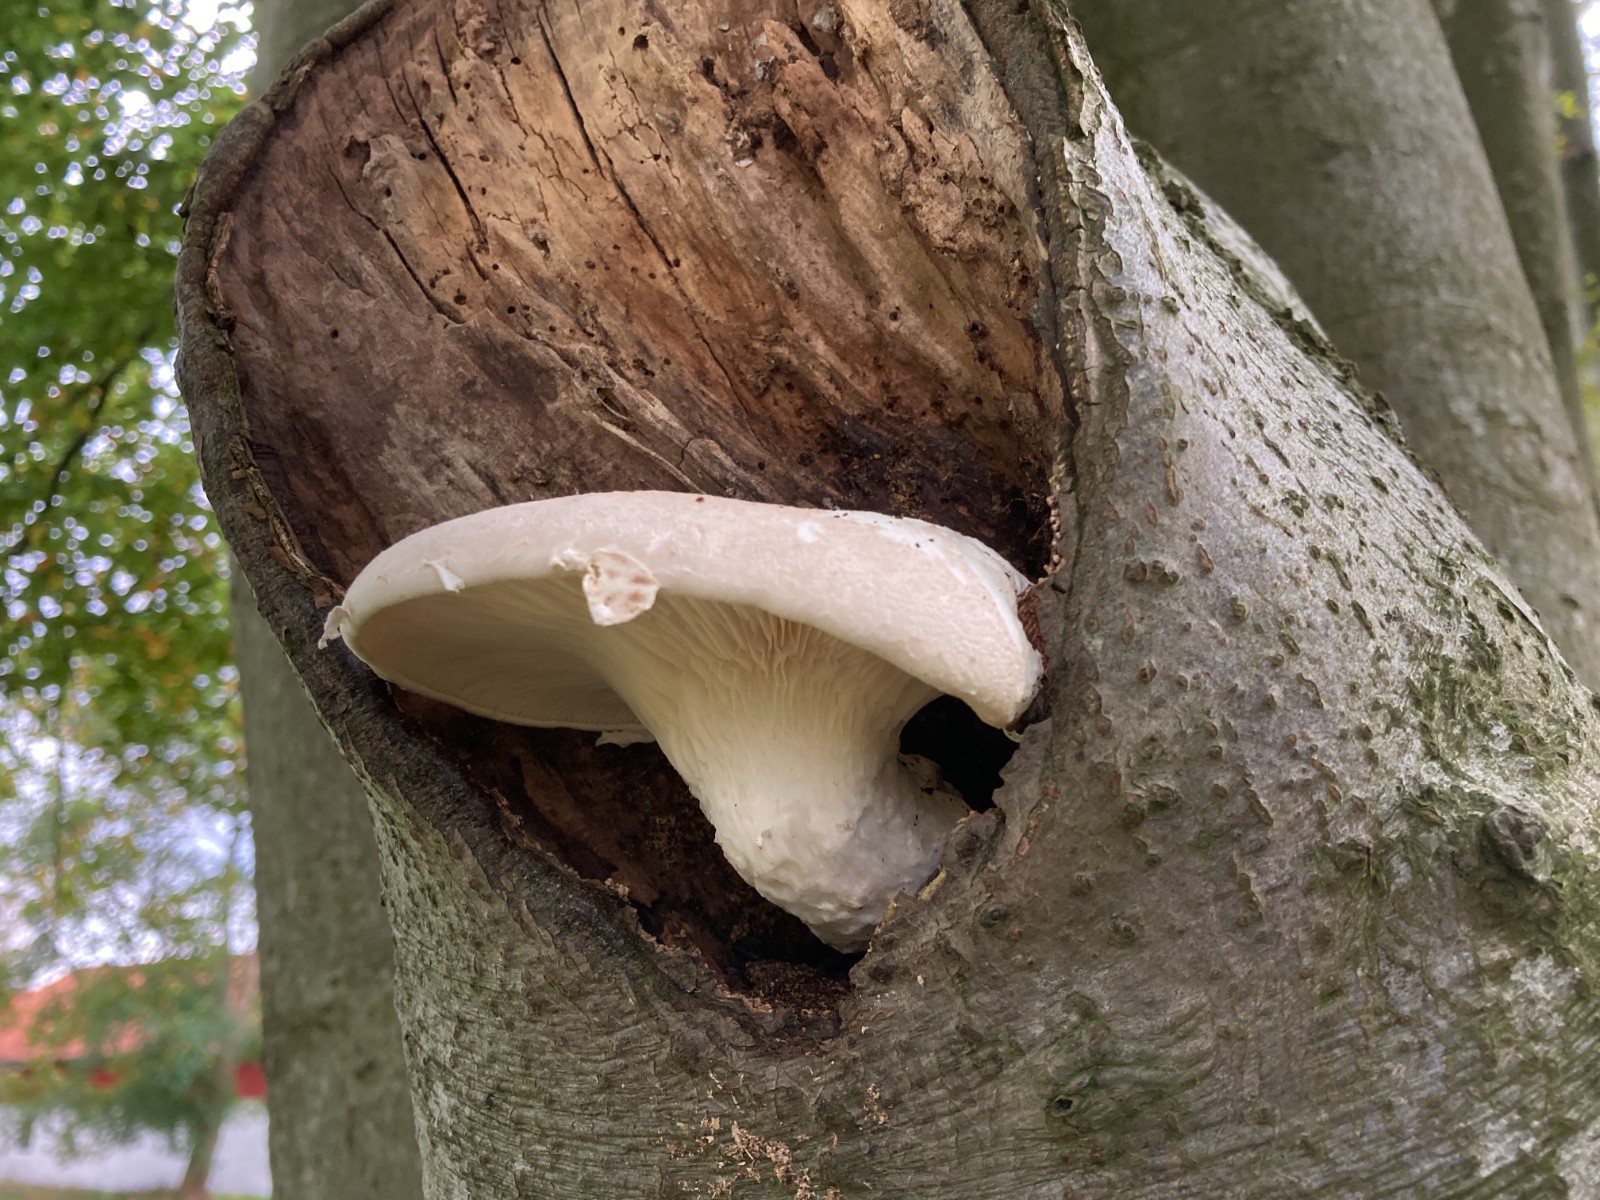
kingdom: Fungi
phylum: Basidiomycota
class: Agaricomycetes
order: Agaricales
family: Pleurotaceae
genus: Pleurotus
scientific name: Pleurotus dryinus
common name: korkagtig østershat
